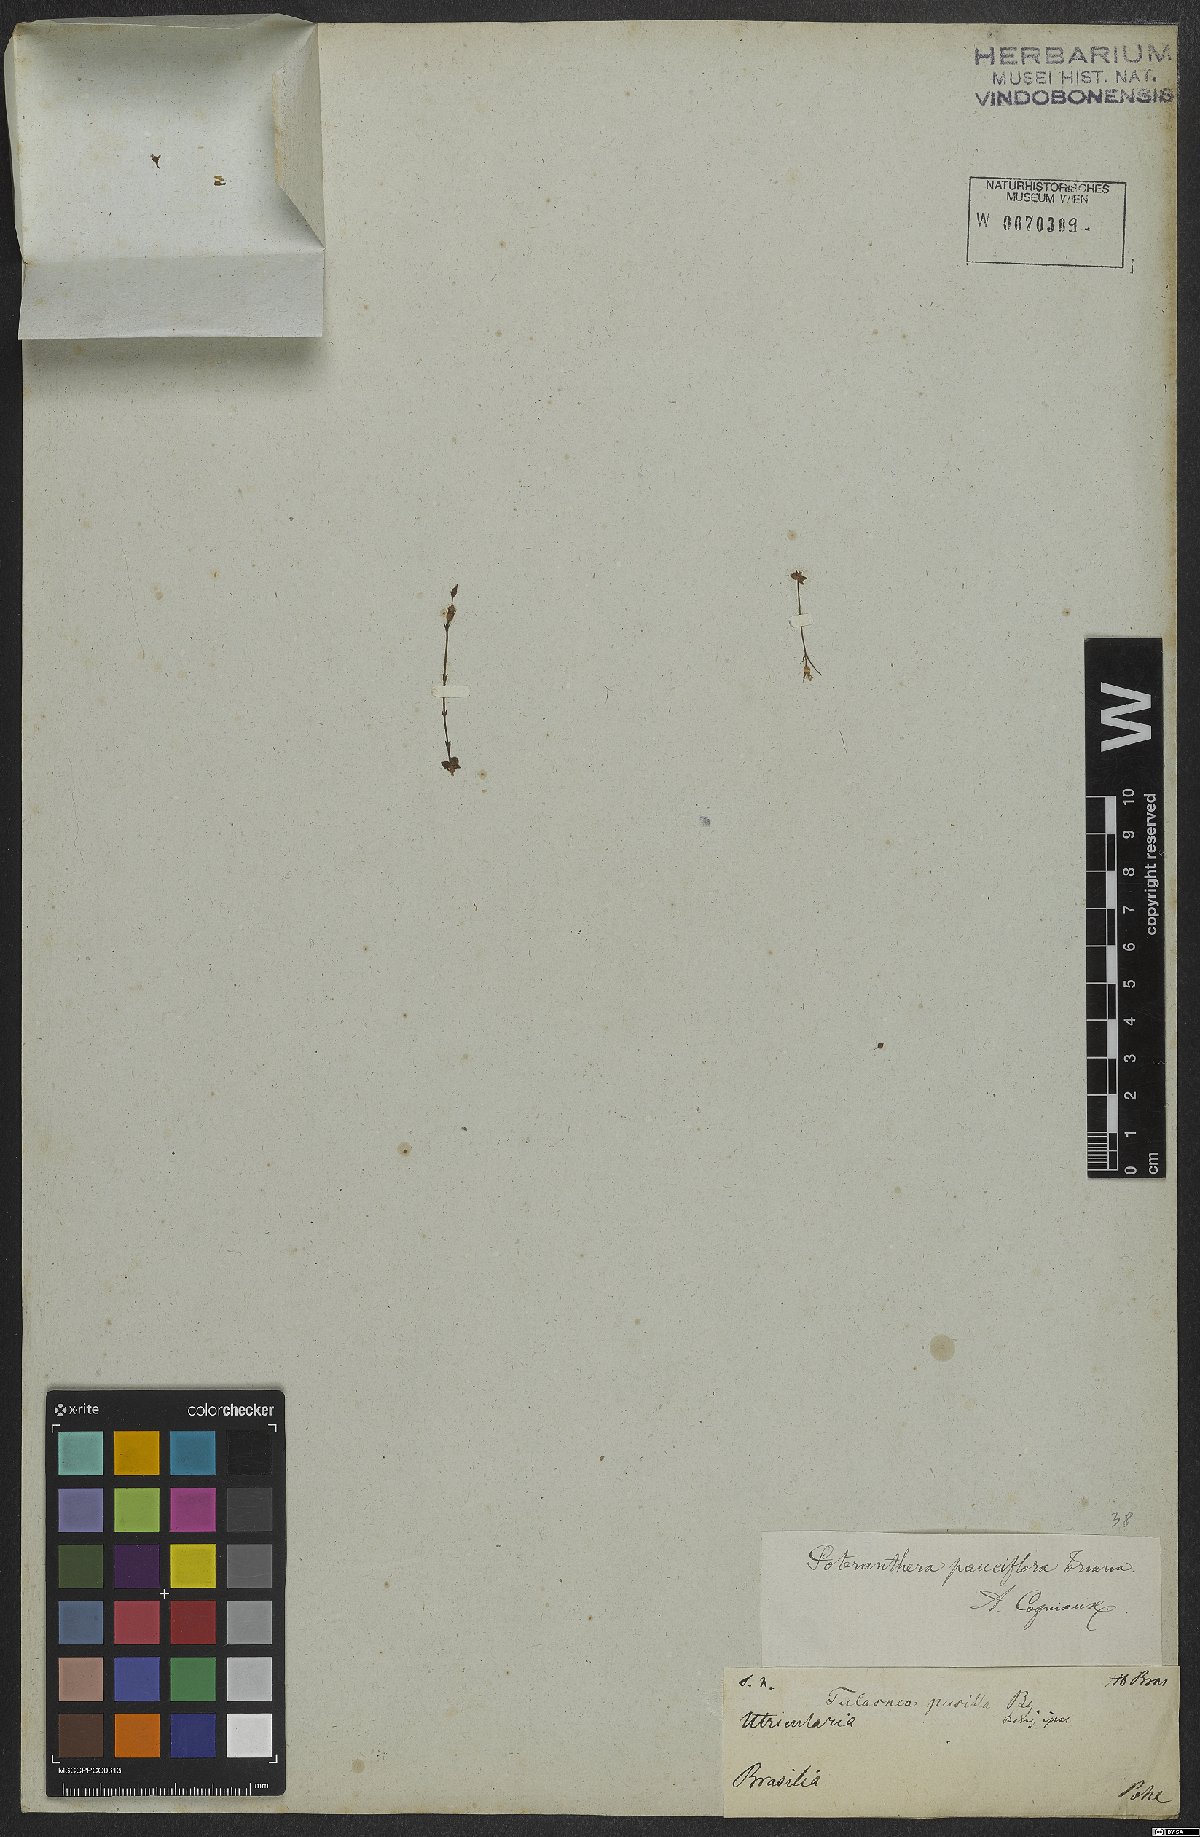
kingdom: Plantae
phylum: Tracheophyta
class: Magnoliopsida
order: Myrtales
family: Melastomataceae
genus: Noterophila
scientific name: Noterophila crassipes
